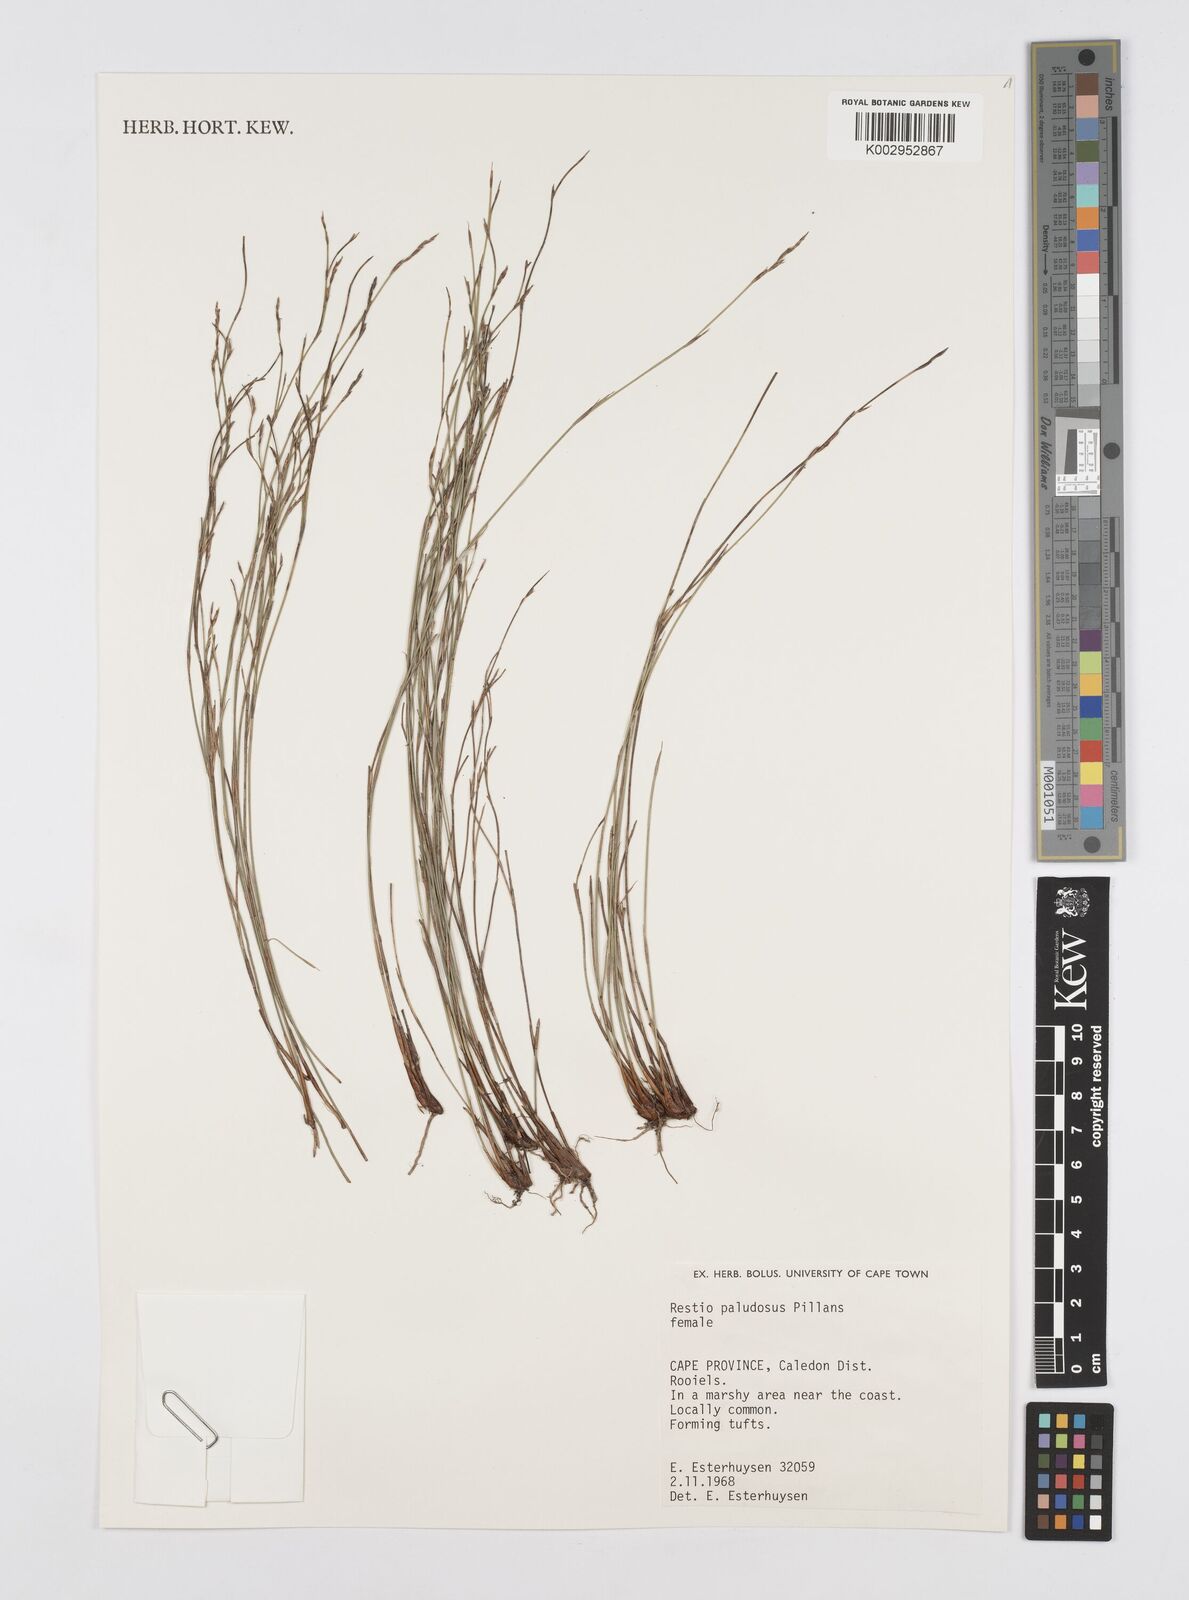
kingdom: Plantae
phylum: Tracheophyta
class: Liliopsida
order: Poales
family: Restionaceae
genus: Restio
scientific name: Restio paludosus
